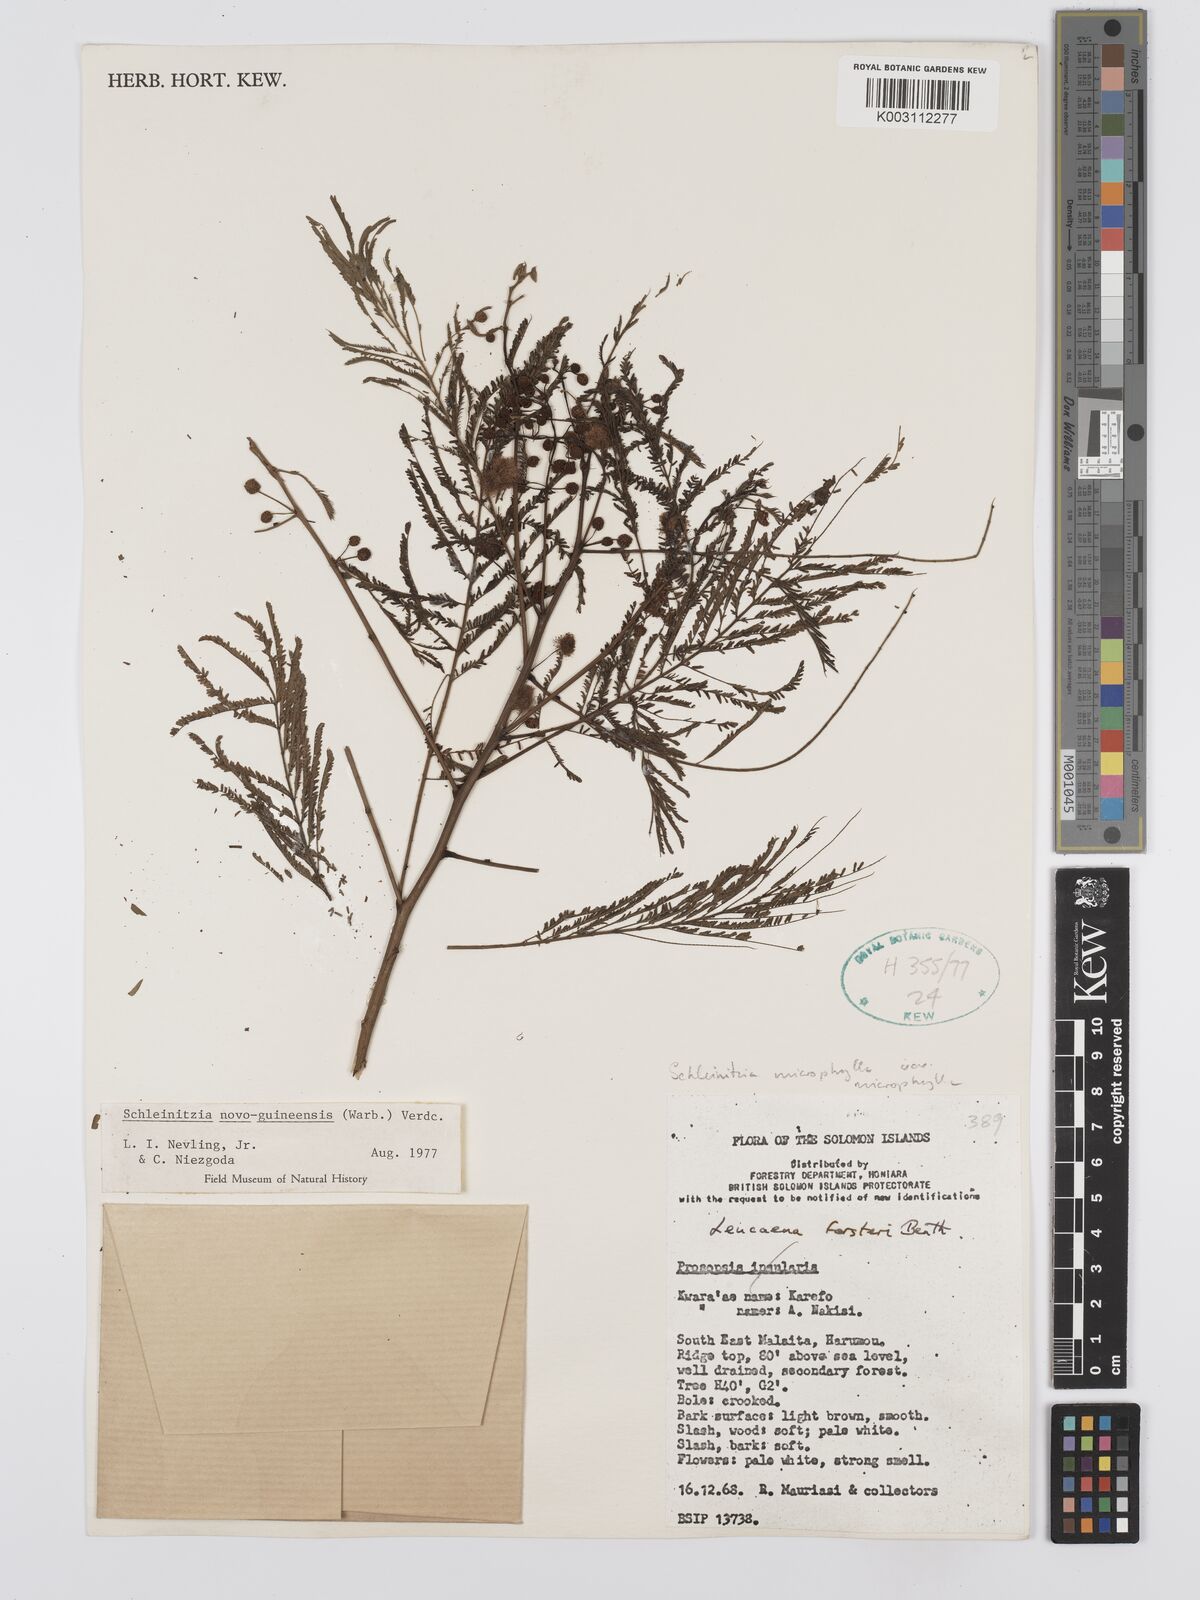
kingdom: Plantae
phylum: Tracheophyta
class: Magnoliopsida
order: Fabales
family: Fabaceae
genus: Schleinitzia
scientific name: Schleinitzia novoguineensis
